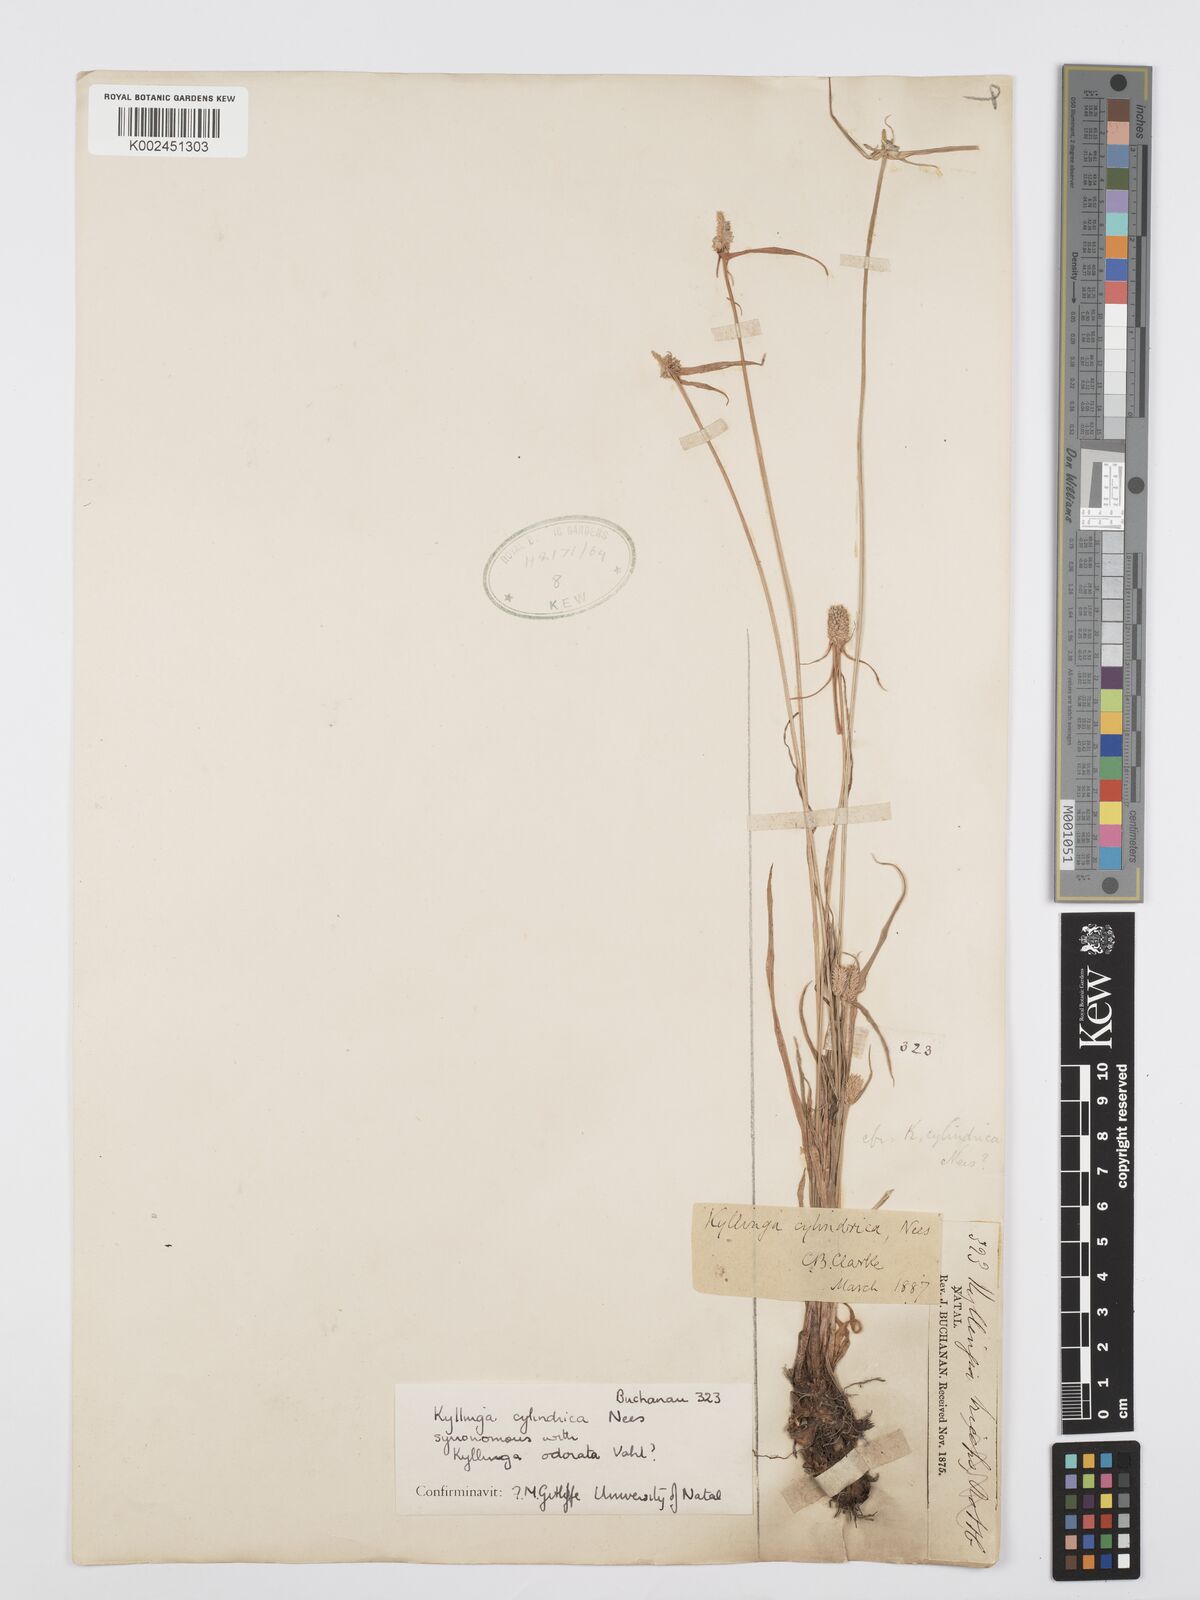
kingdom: Plantae
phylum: Tracheophyta
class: Liliopsida
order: Poales
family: Cyperaceae
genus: Cyperus
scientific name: Cyperus
